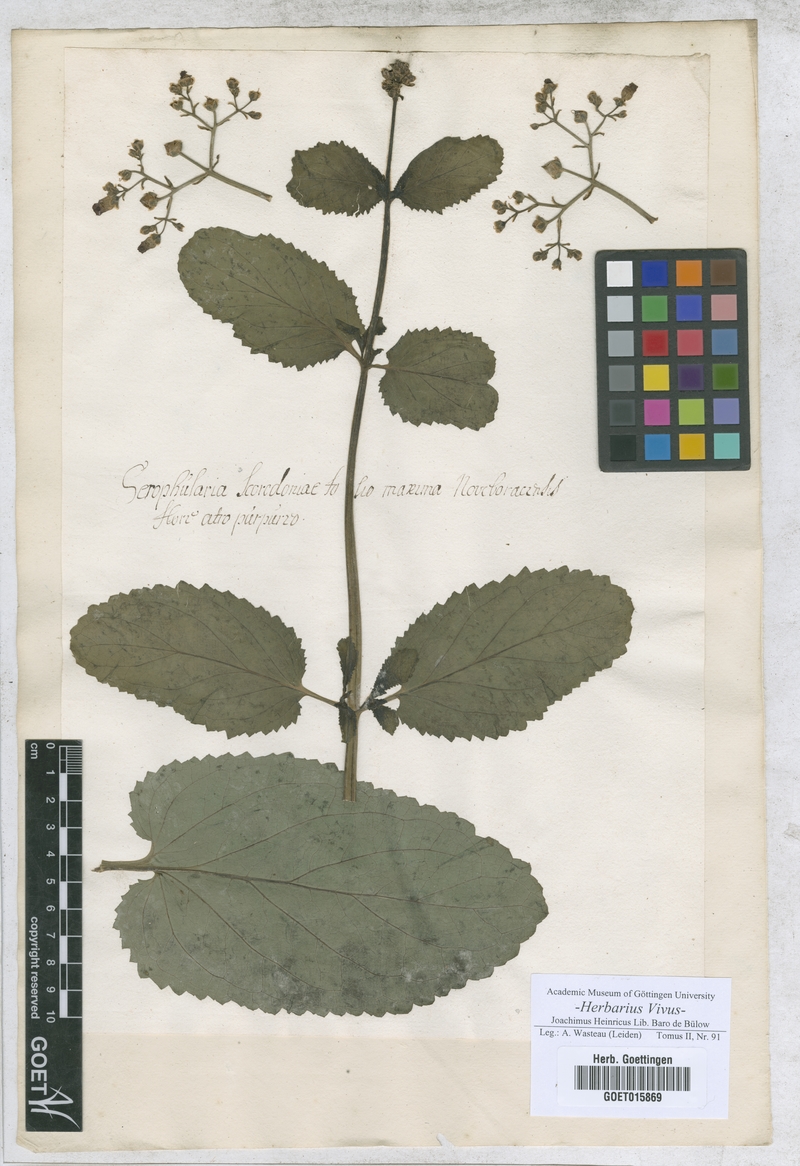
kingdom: Plantae
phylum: Tracheophyta
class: Magnoliopsida
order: Lamiales
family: Scrophulariaceae
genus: Scrophularia
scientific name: Scrophularia
